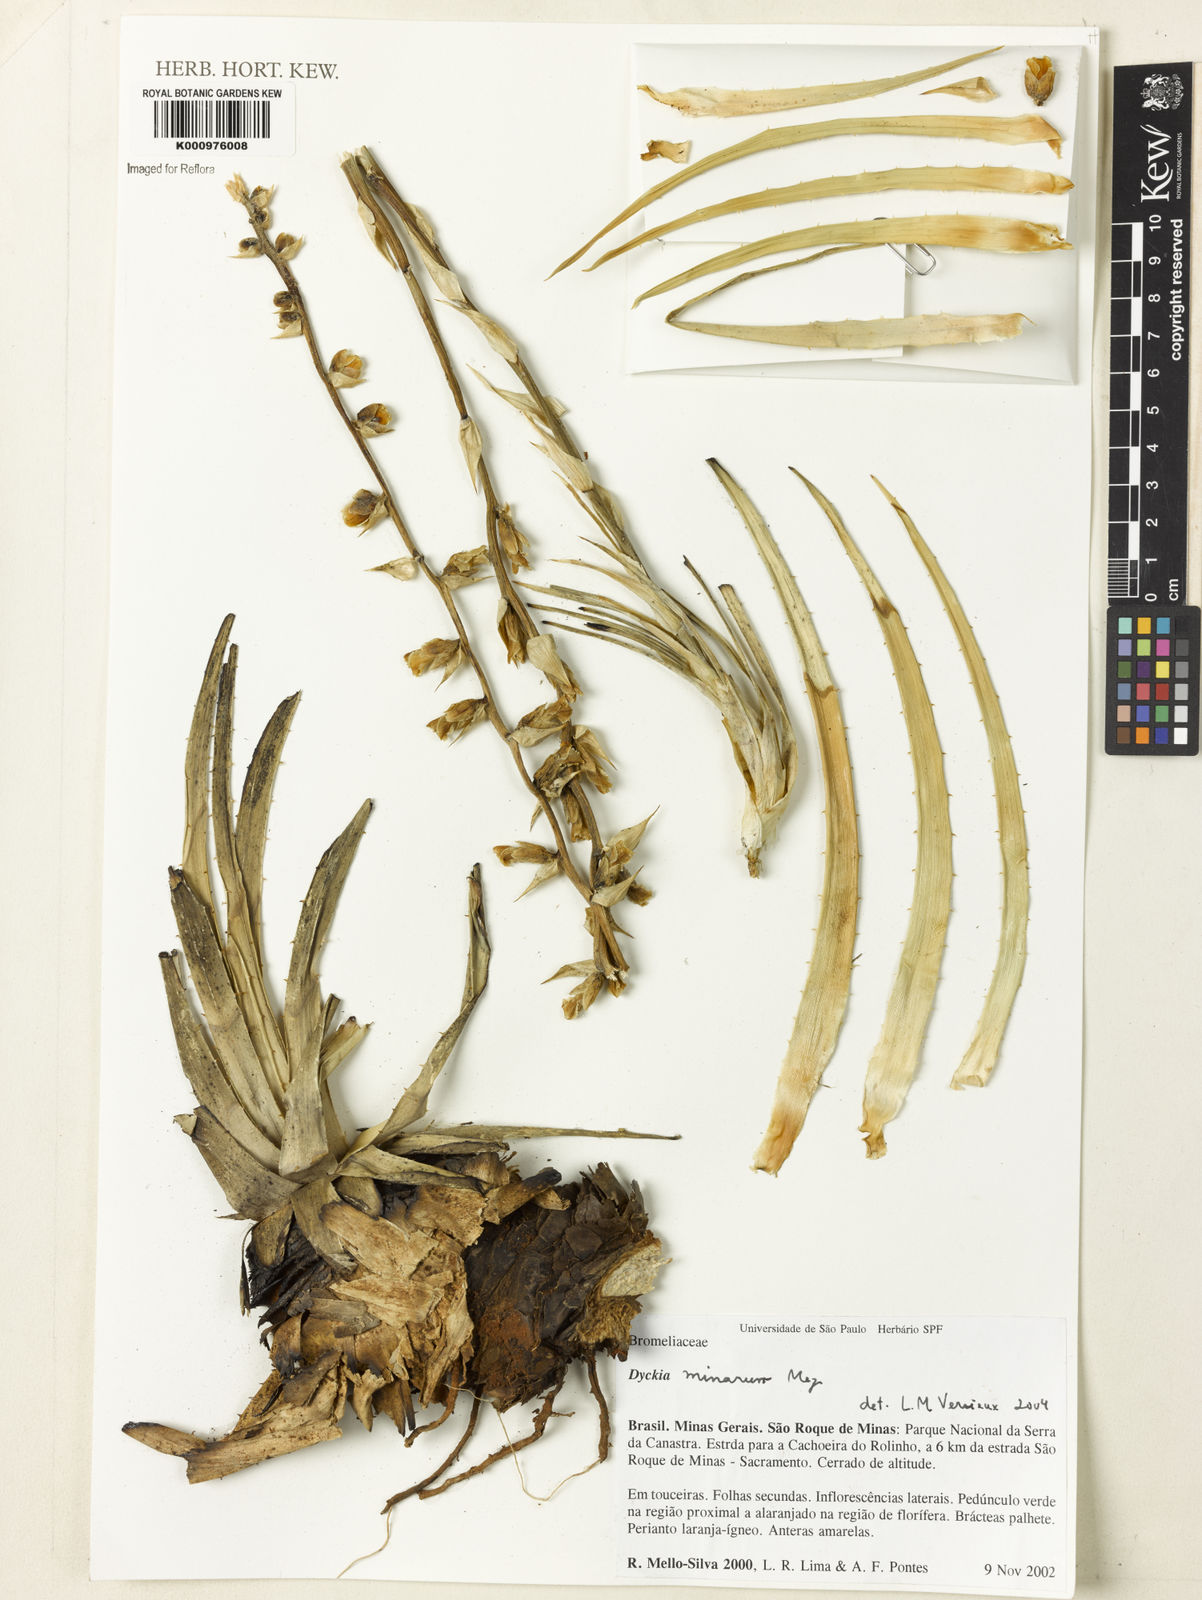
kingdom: Plantae
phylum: Tracheophyta
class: Liliopsida
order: Poales
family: Bromeliaceae
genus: Dyckia
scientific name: Dyckia minarum
